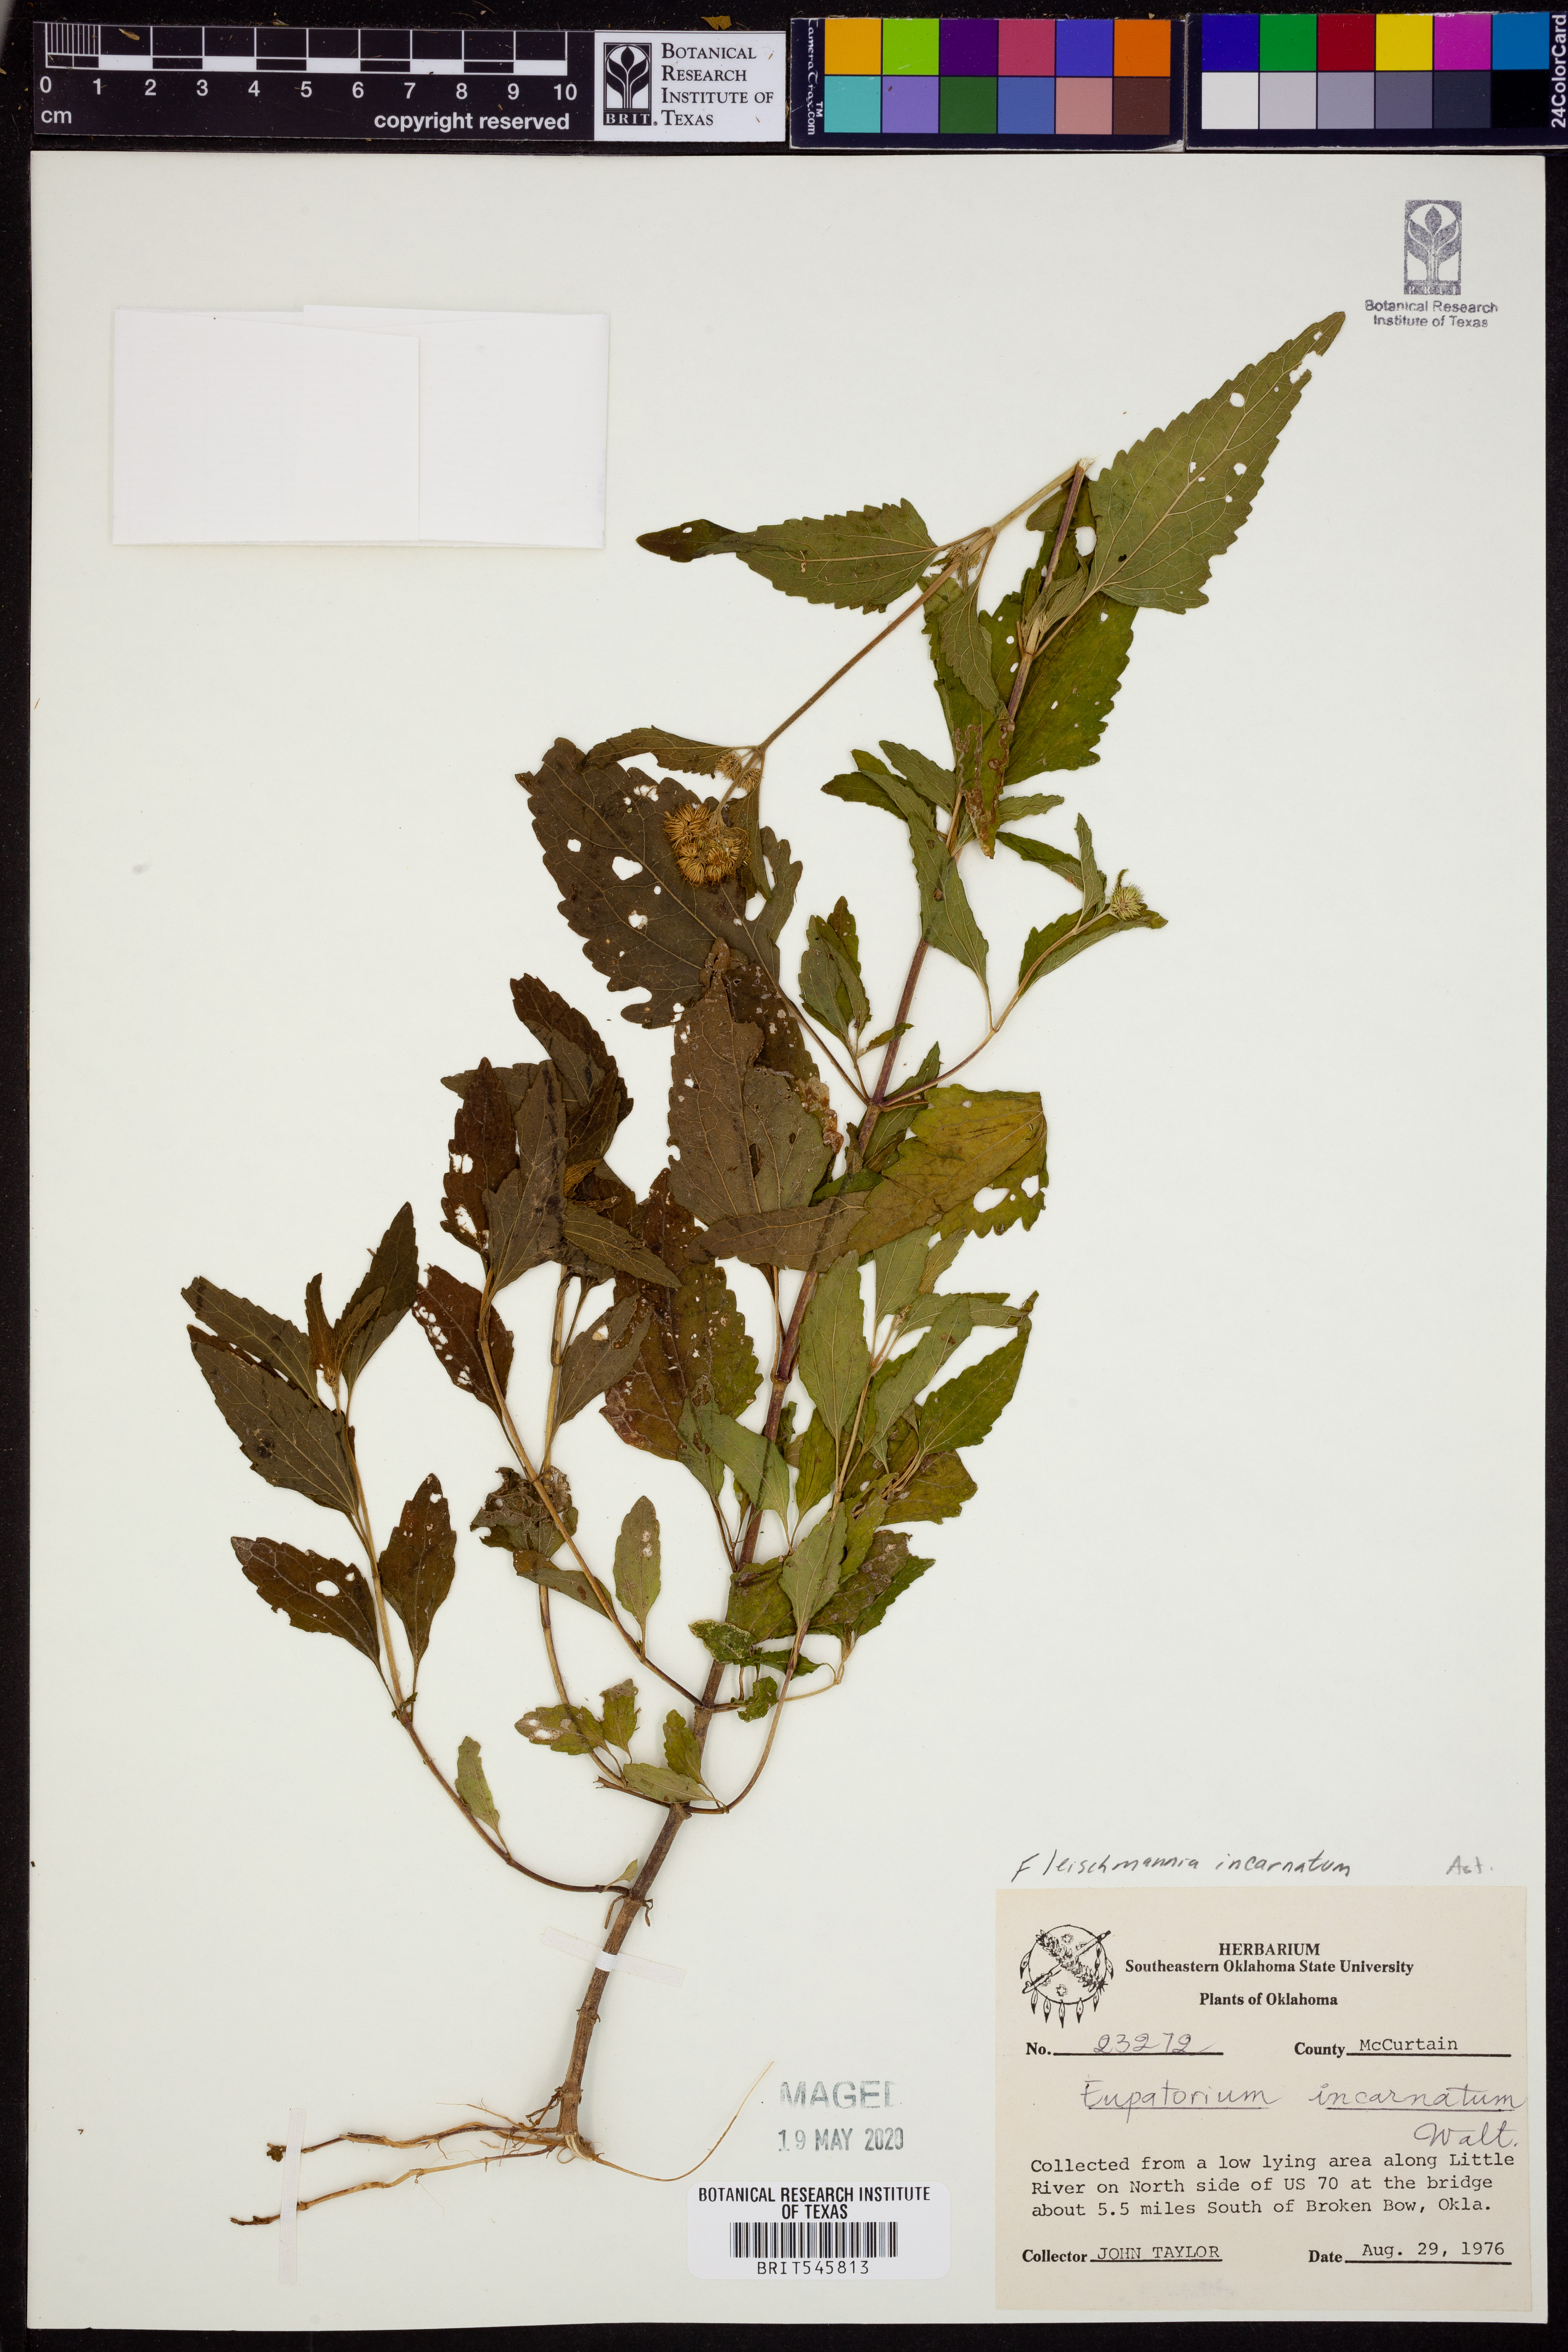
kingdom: Plantae
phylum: Tracheophyta
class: Magnoliopsida
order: Asterales
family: Asteraceae
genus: Fleischmannia
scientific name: Fleischmannia incarnata
